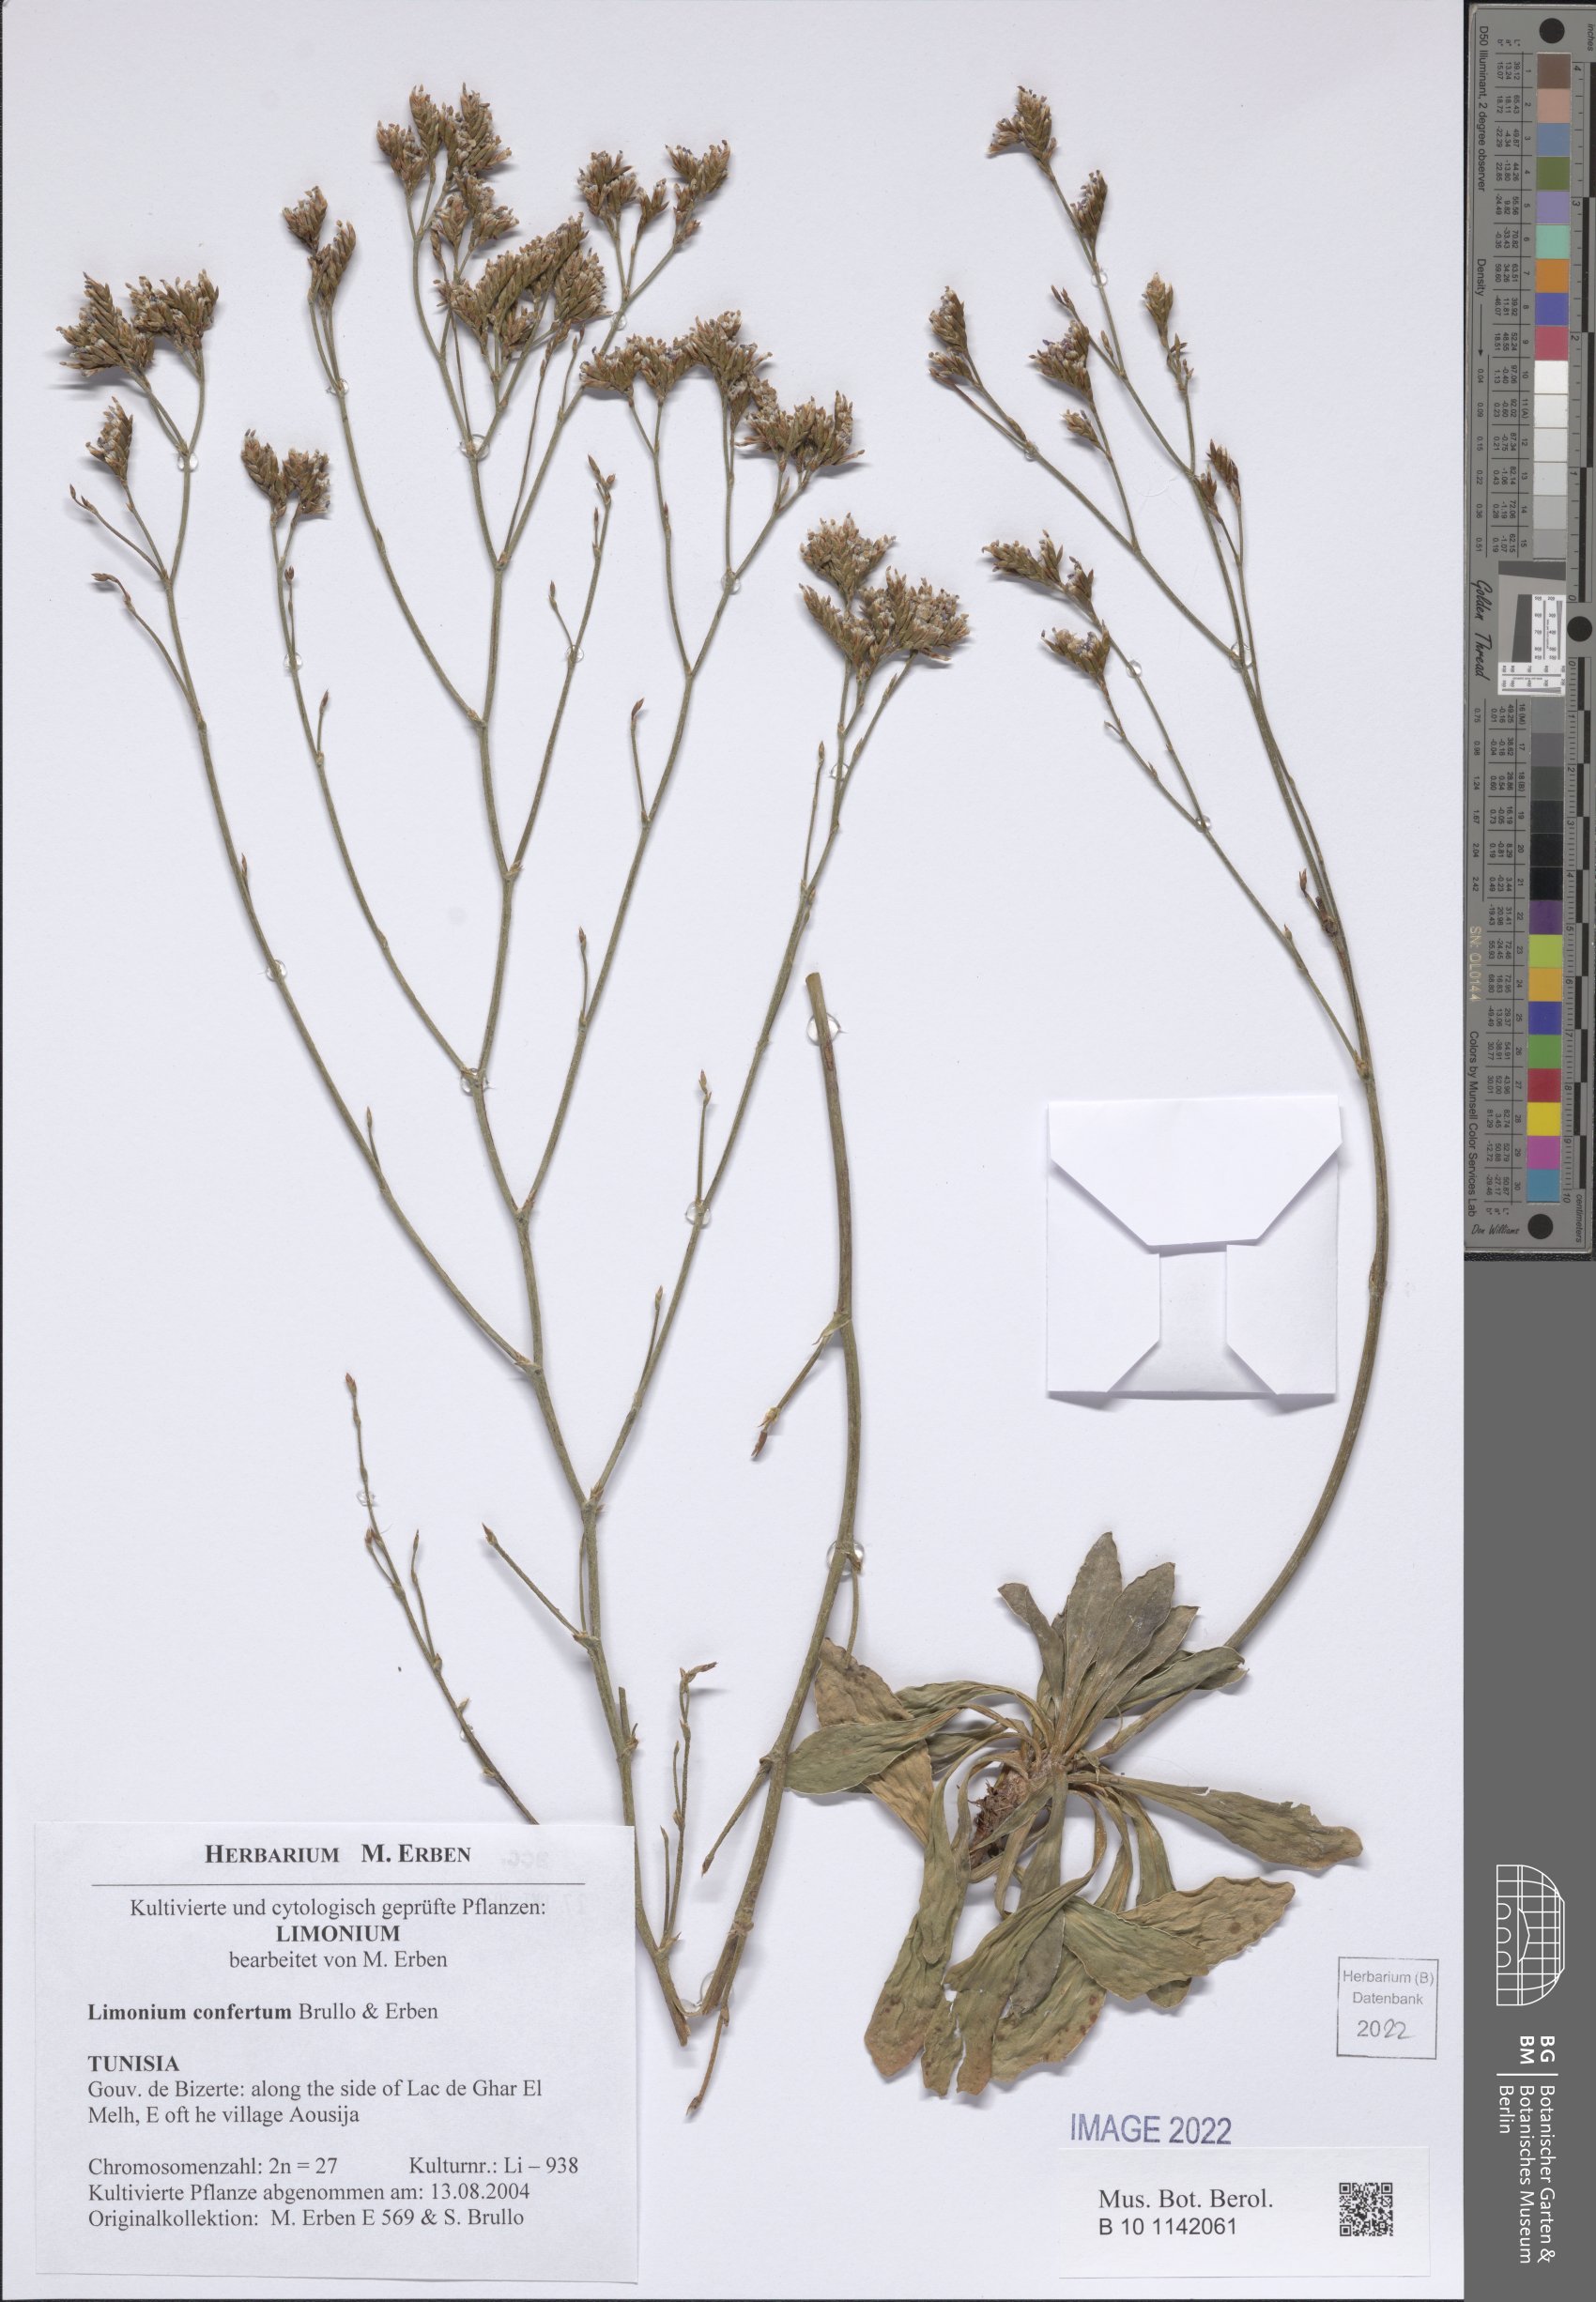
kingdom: Plantae
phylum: Tracheophyta
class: Magnoliopsida
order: Caryophyllales
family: Plumbaginaceae
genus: Limonium
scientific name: Limonium confertum
